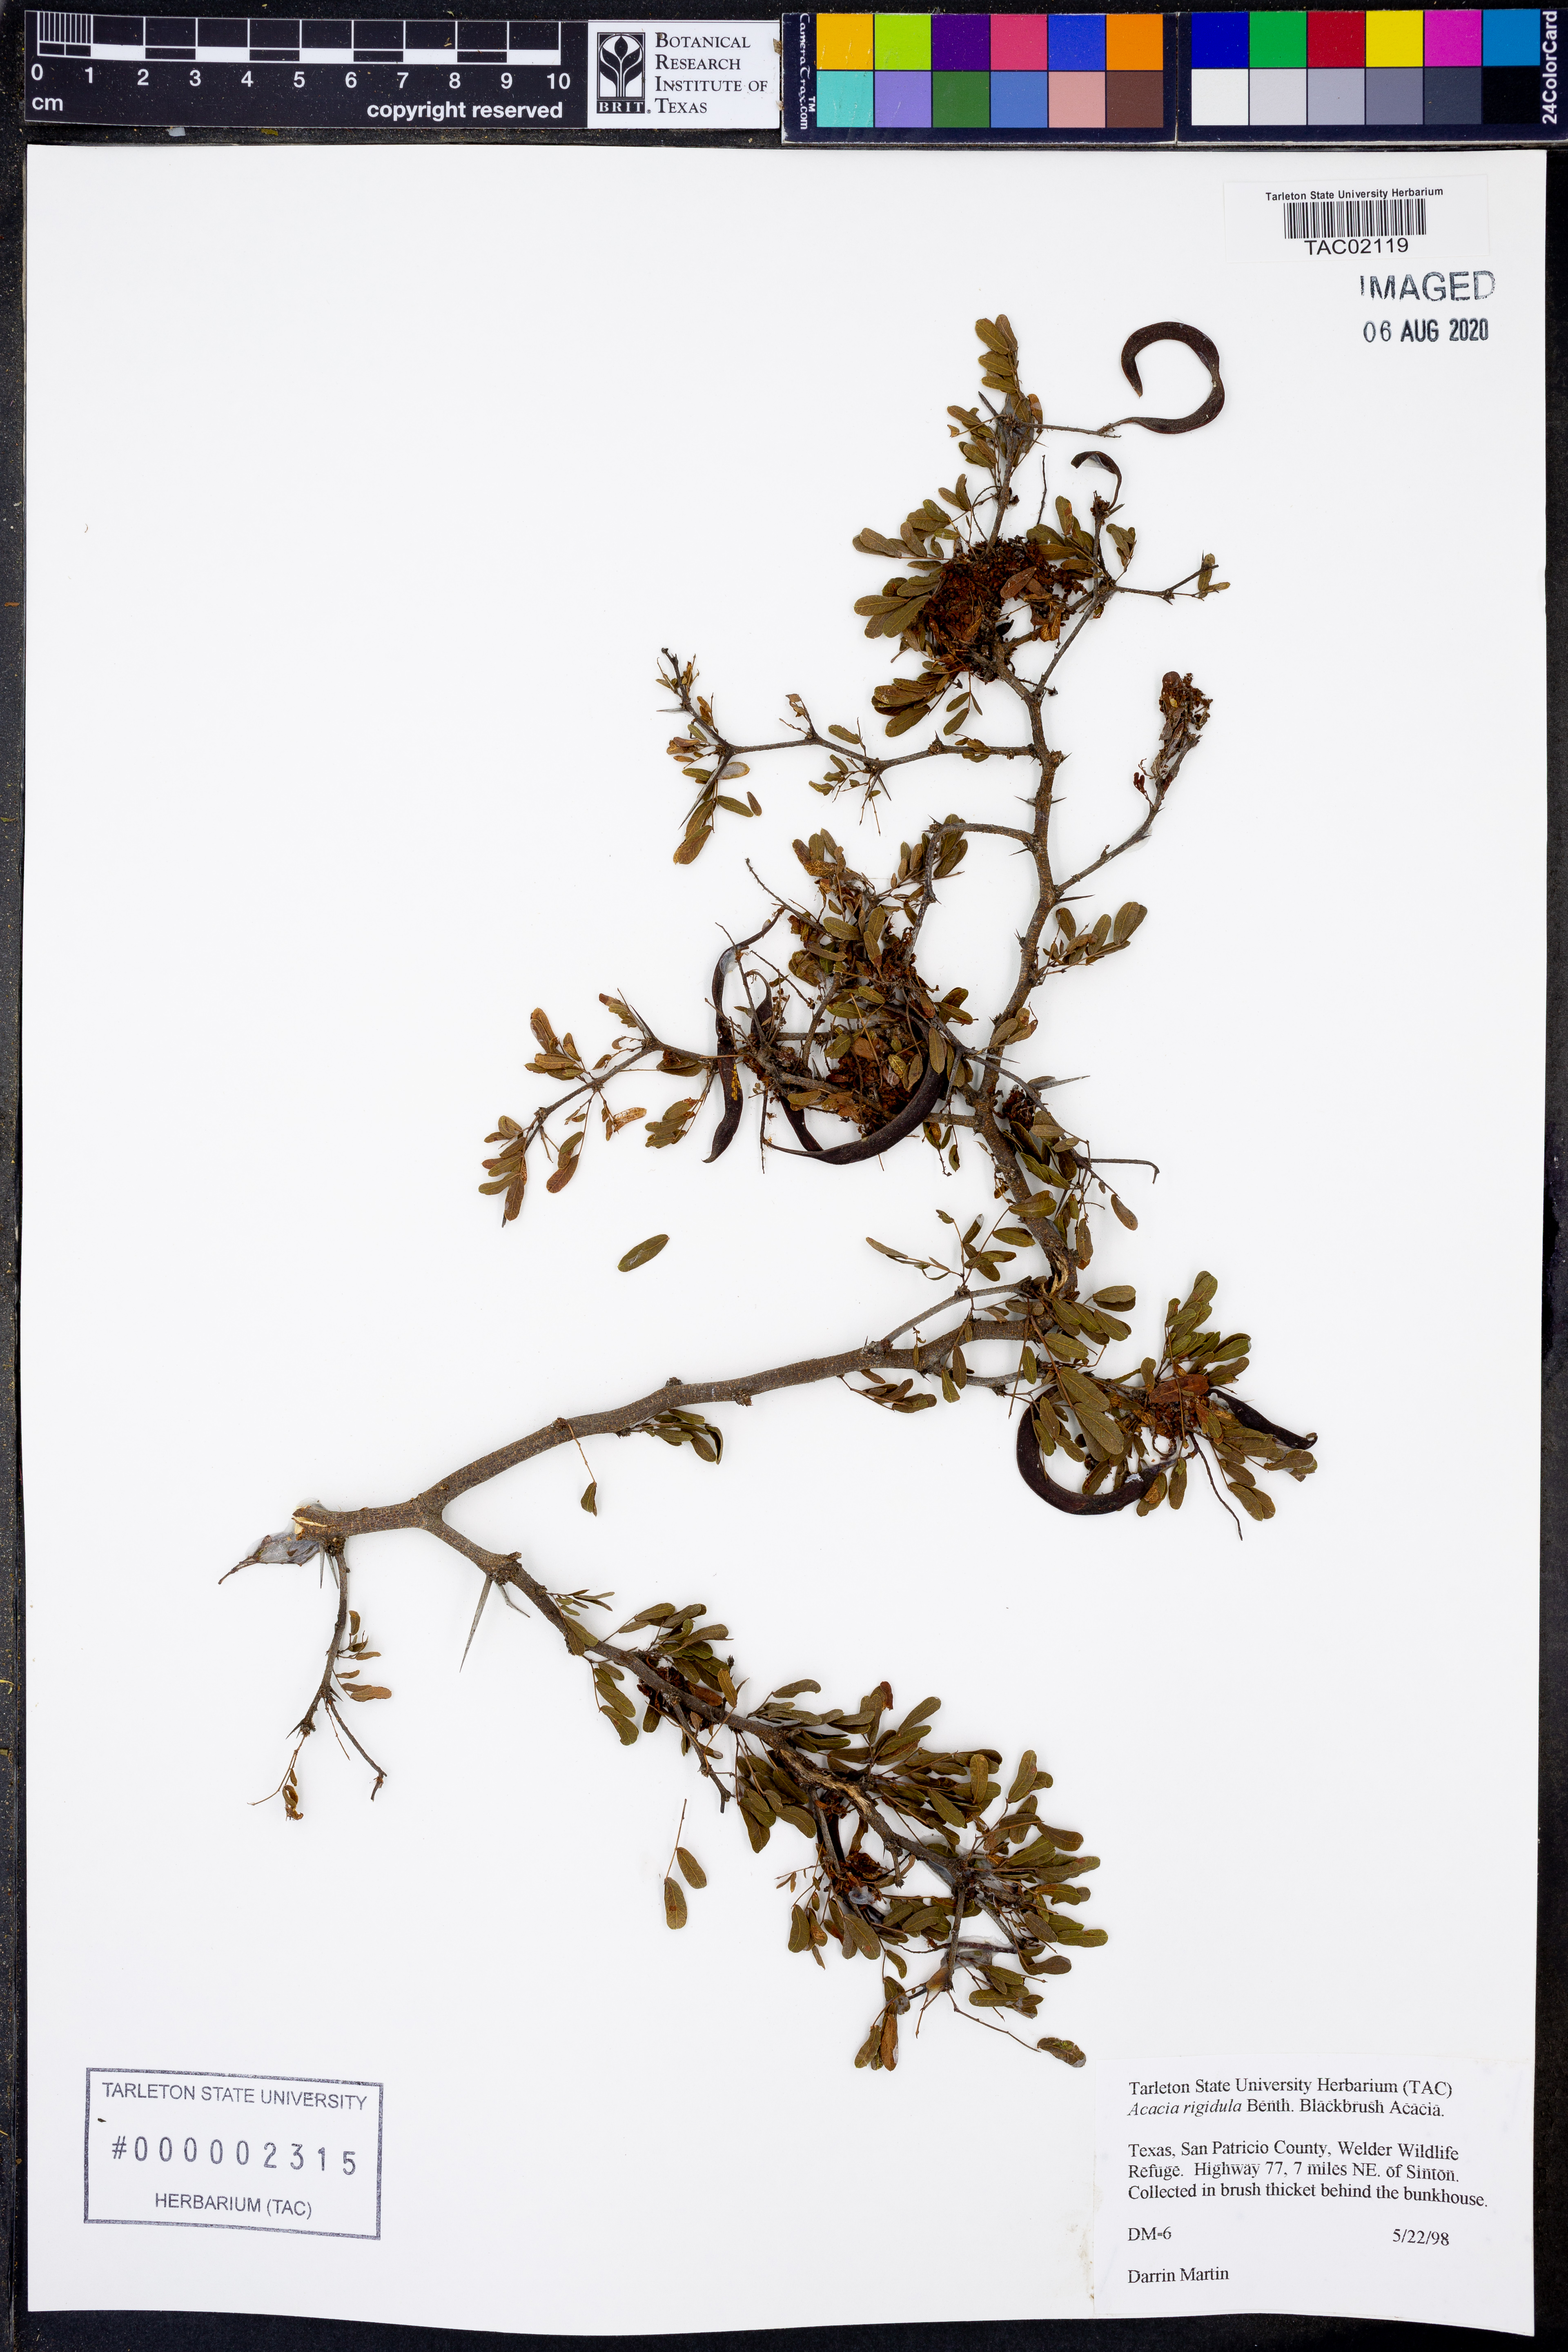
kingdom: Plantae
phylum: Tracheophyta
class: Magnoliopsida
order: Fabales
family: Fabaceae
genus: Vachellia
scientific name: Vachellia rigidula
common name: Blackbrush
